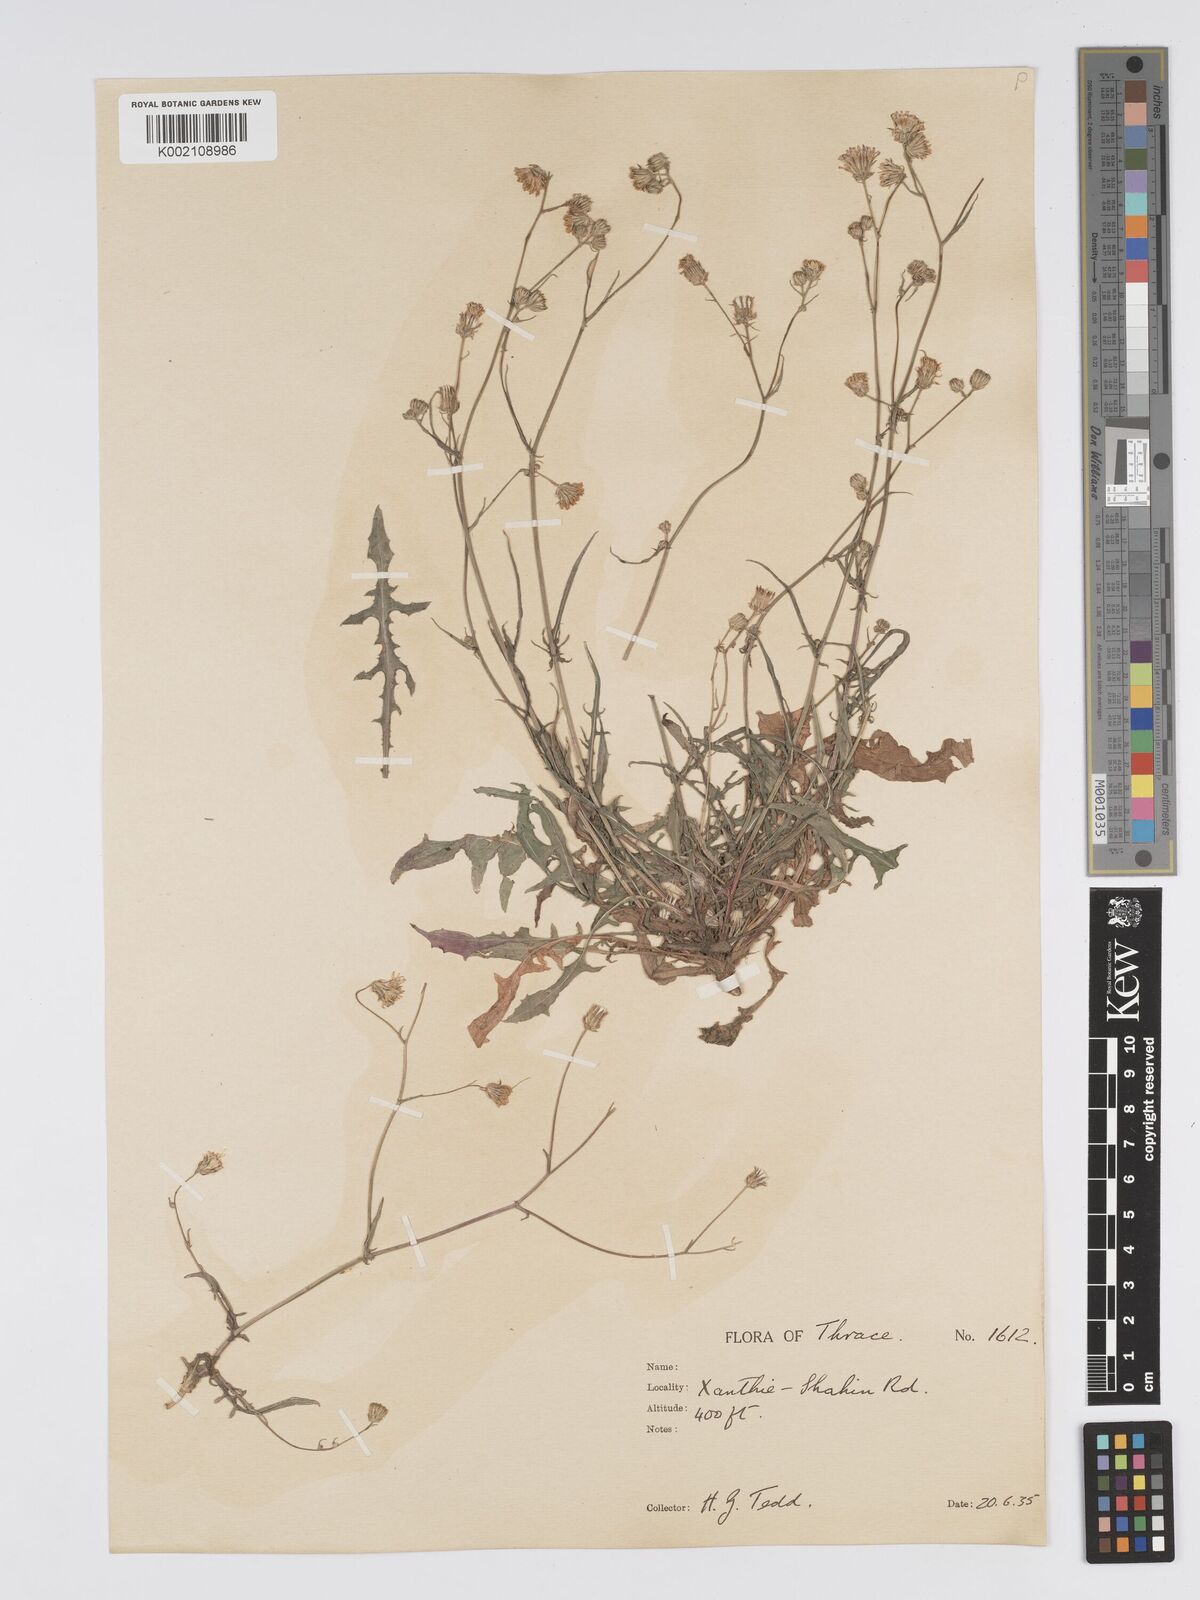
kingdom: Plantae
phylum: Tracheophyta
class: Magnoliopsida
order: Asterales
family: Asteraceae
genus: Crepis
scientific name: Crepis setosa
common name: Bristly hawk's-beard
